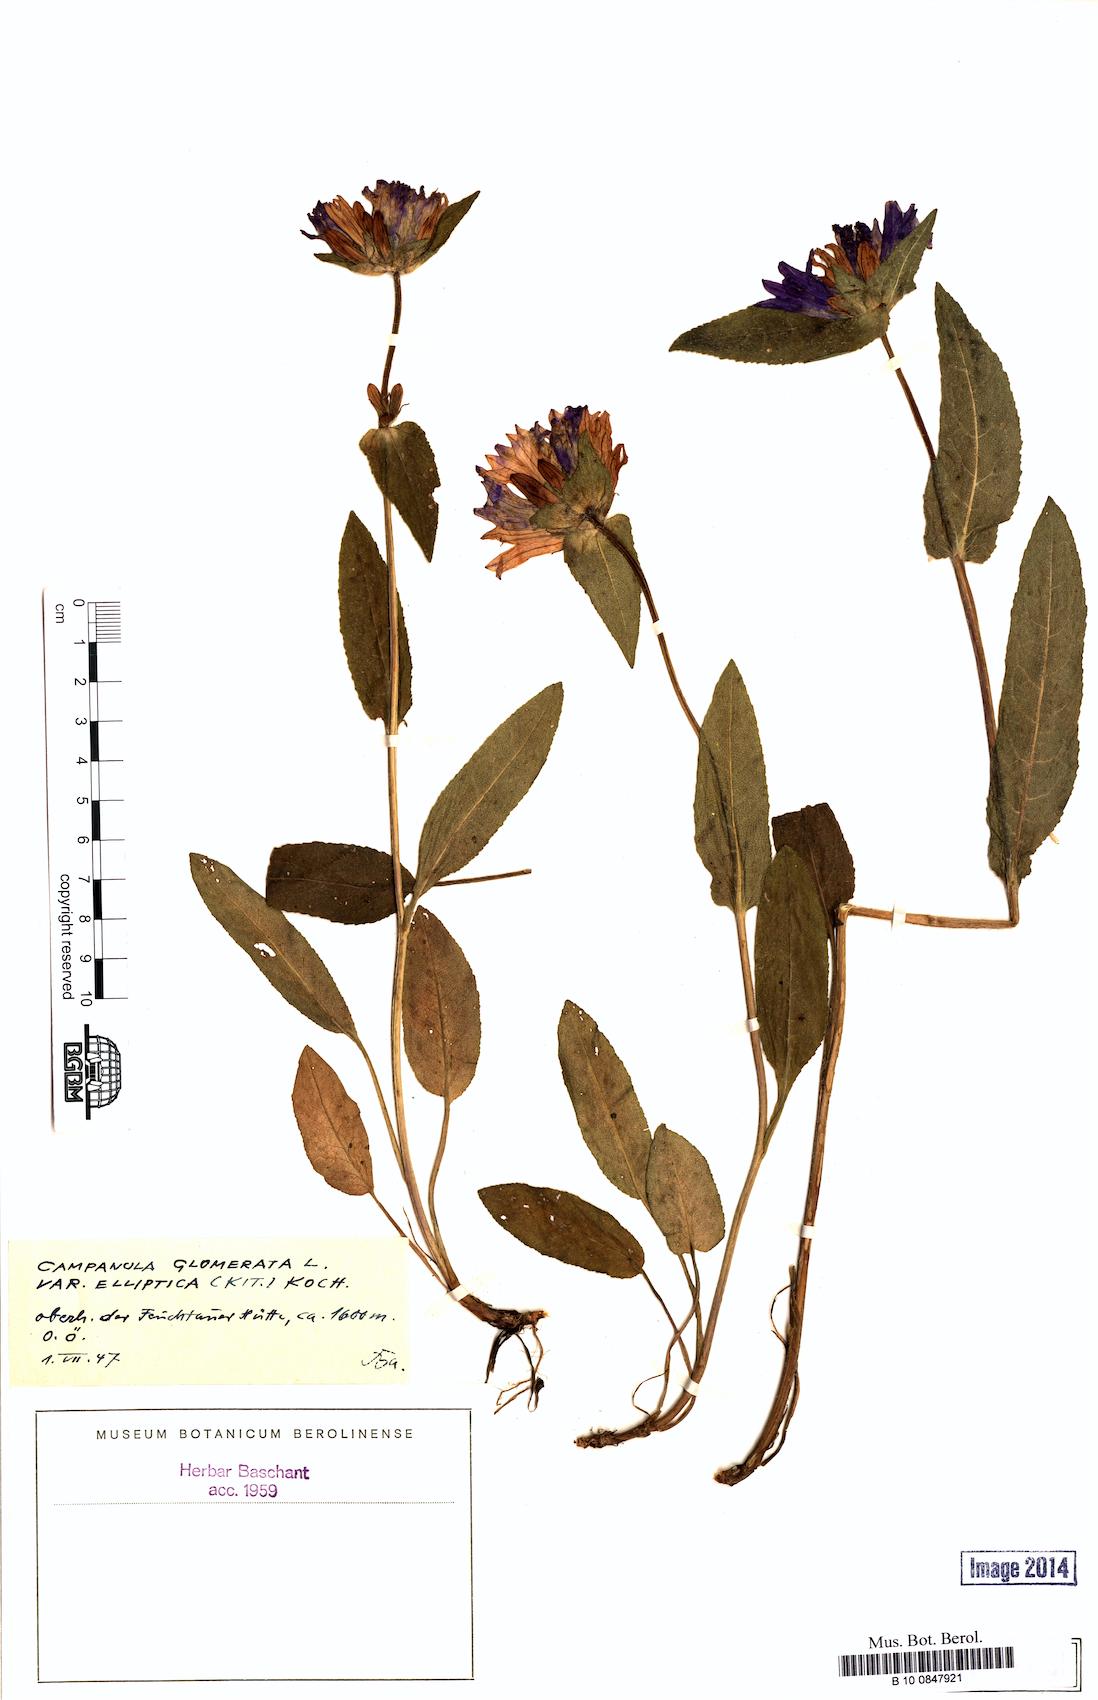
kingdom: Plantae
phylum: Tracheophyta
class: Magnoliopsida
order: Asterales
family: Campanulaceae
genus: Campanula
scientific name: Campanula glomerata
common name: Clustered bellflower
